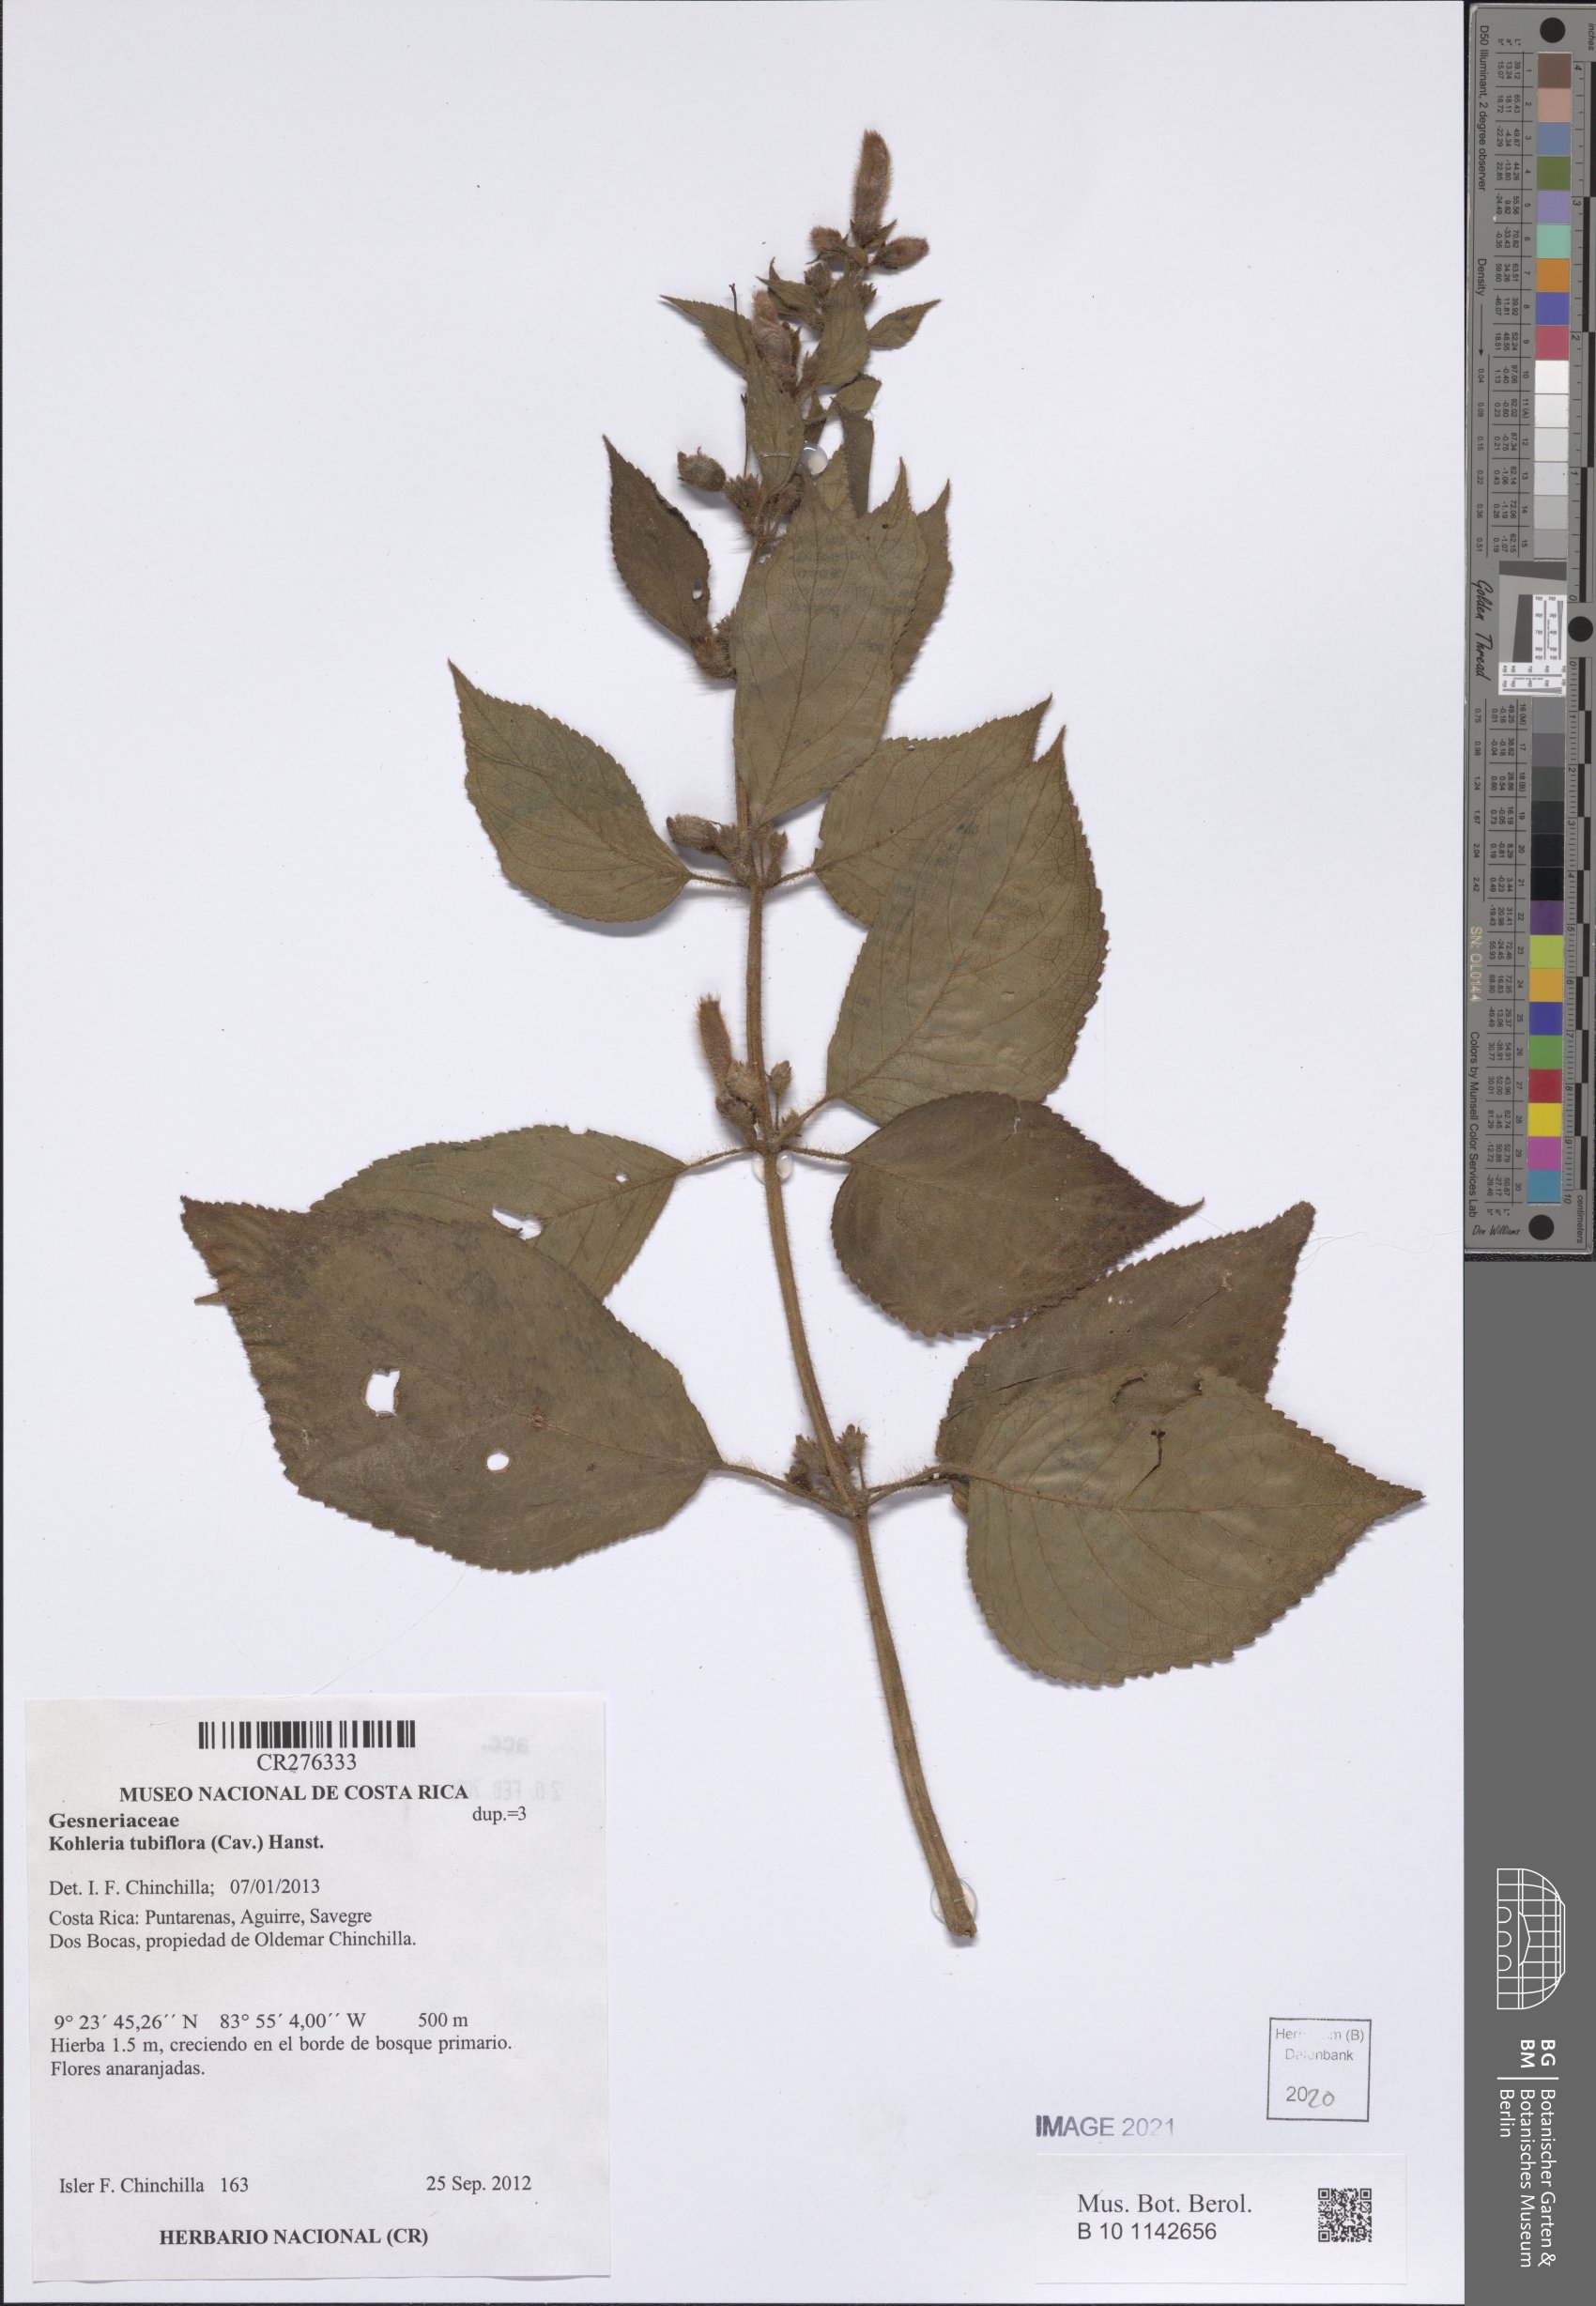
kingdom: Plantae
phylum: Tracheophyta
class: Magnoliopsida
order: Lamiales
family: Gesneriaceae
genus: Kohleria
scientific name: Kohleria tubiflora
